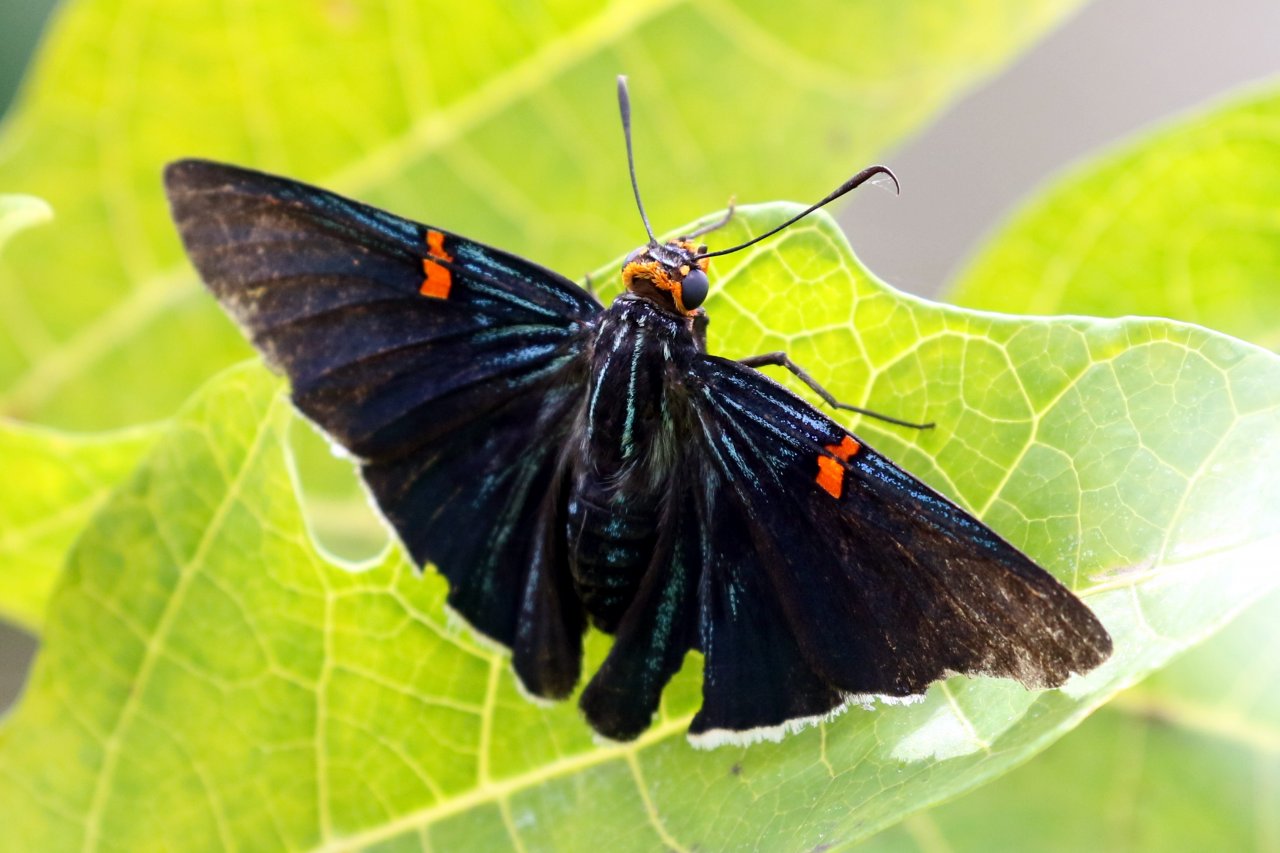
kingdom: Animalia
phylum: Arthropoda
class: Insecta
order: Lepidoptera
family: Hesperiidae
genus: Phocides
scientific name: Phocides polybius
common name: Guava Skipper
